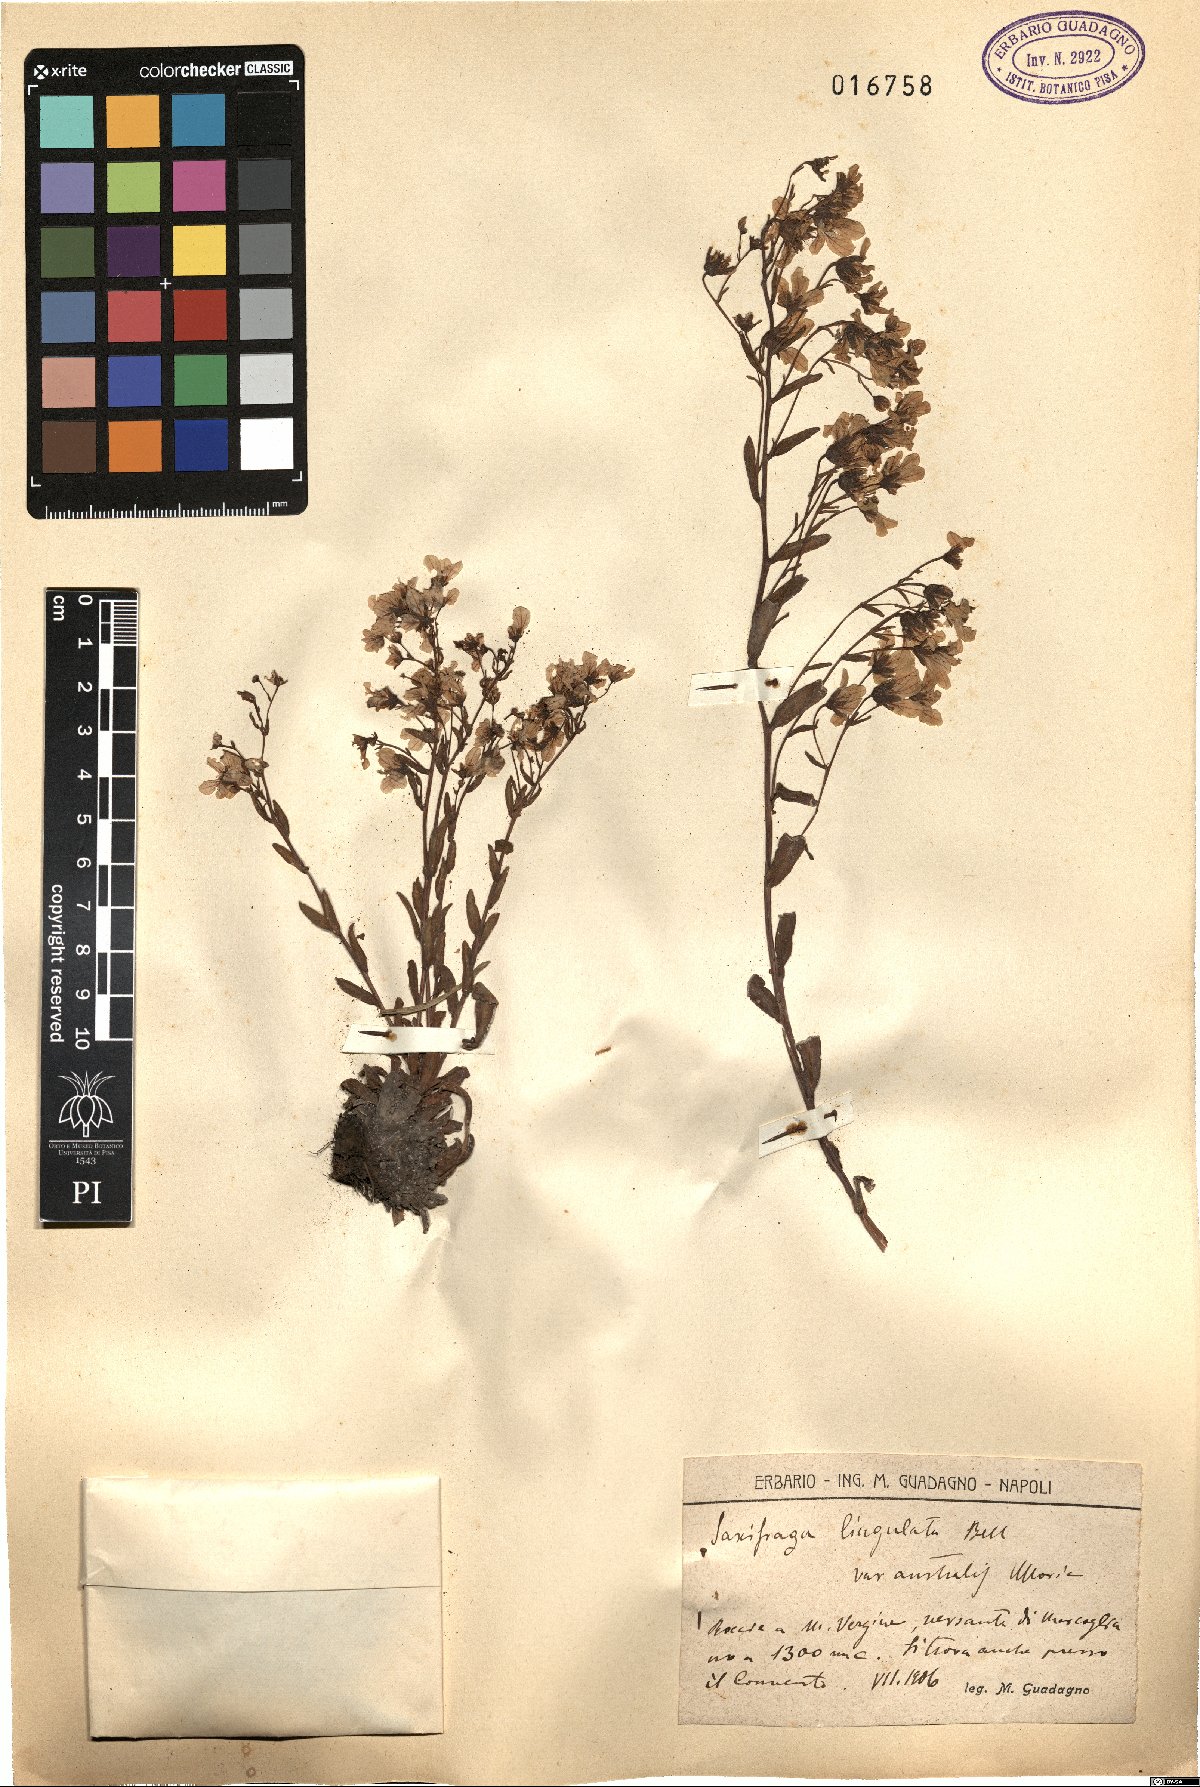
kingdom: Plantae
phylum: Tracheophyta
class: Magnoliopsida
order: Saxifragales
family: Saxifragaceae
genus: Saxifraga
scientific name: Saxifraga callosa
